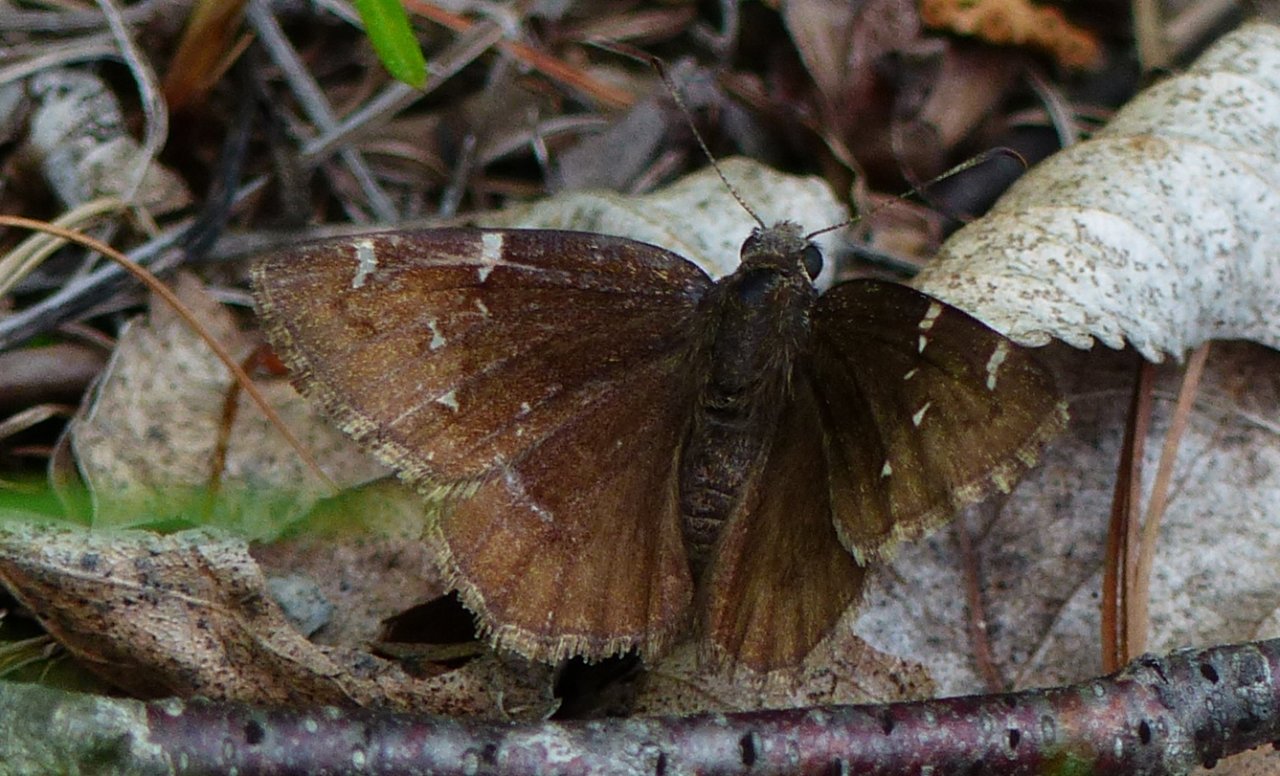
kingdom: Animalia
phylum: Arthropoda
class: Insecta
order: Lepidoptera
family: Hesperiidae
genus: Autochton
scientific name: Autochton
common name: Northern Cloudywing
